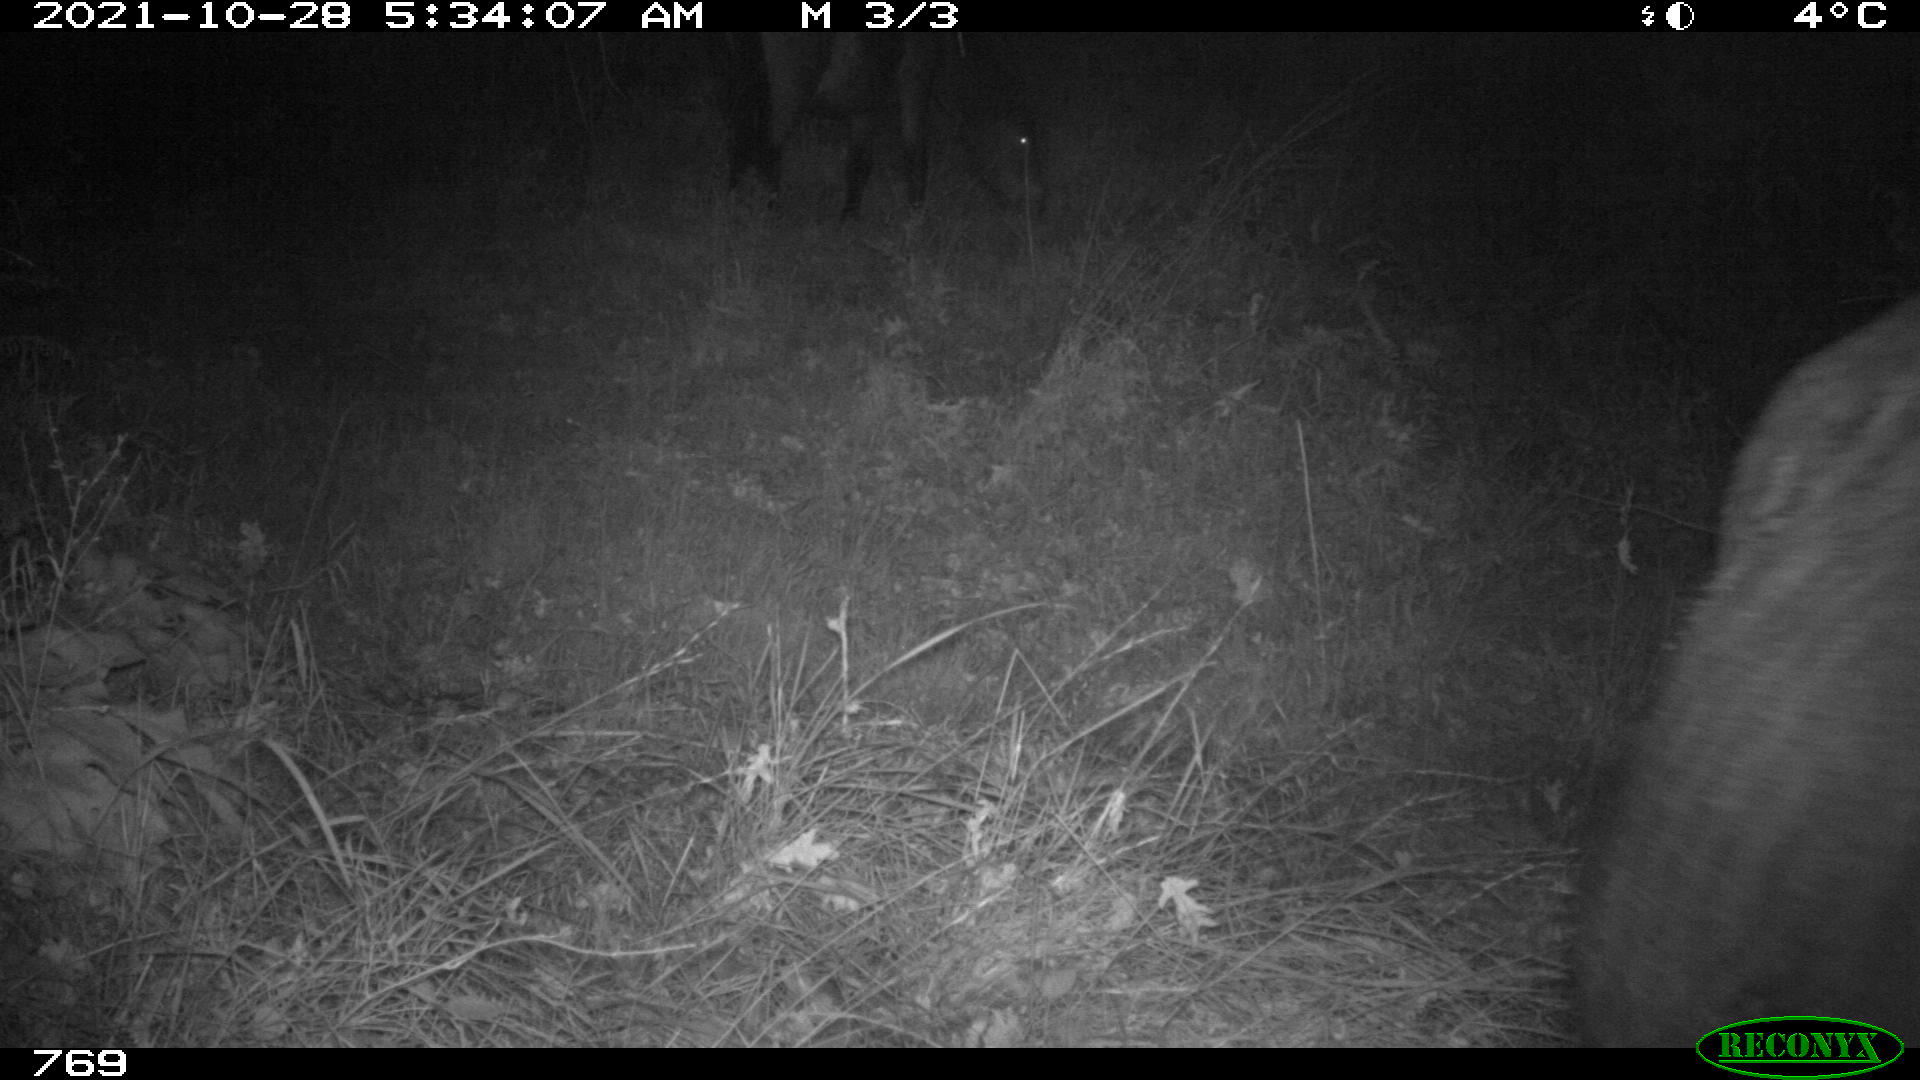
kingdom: Animalia
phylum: Chordata
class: Mammalia
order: Perissodactyla
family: Equidae
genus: Equus
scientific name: Equus caballus
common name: Horse
